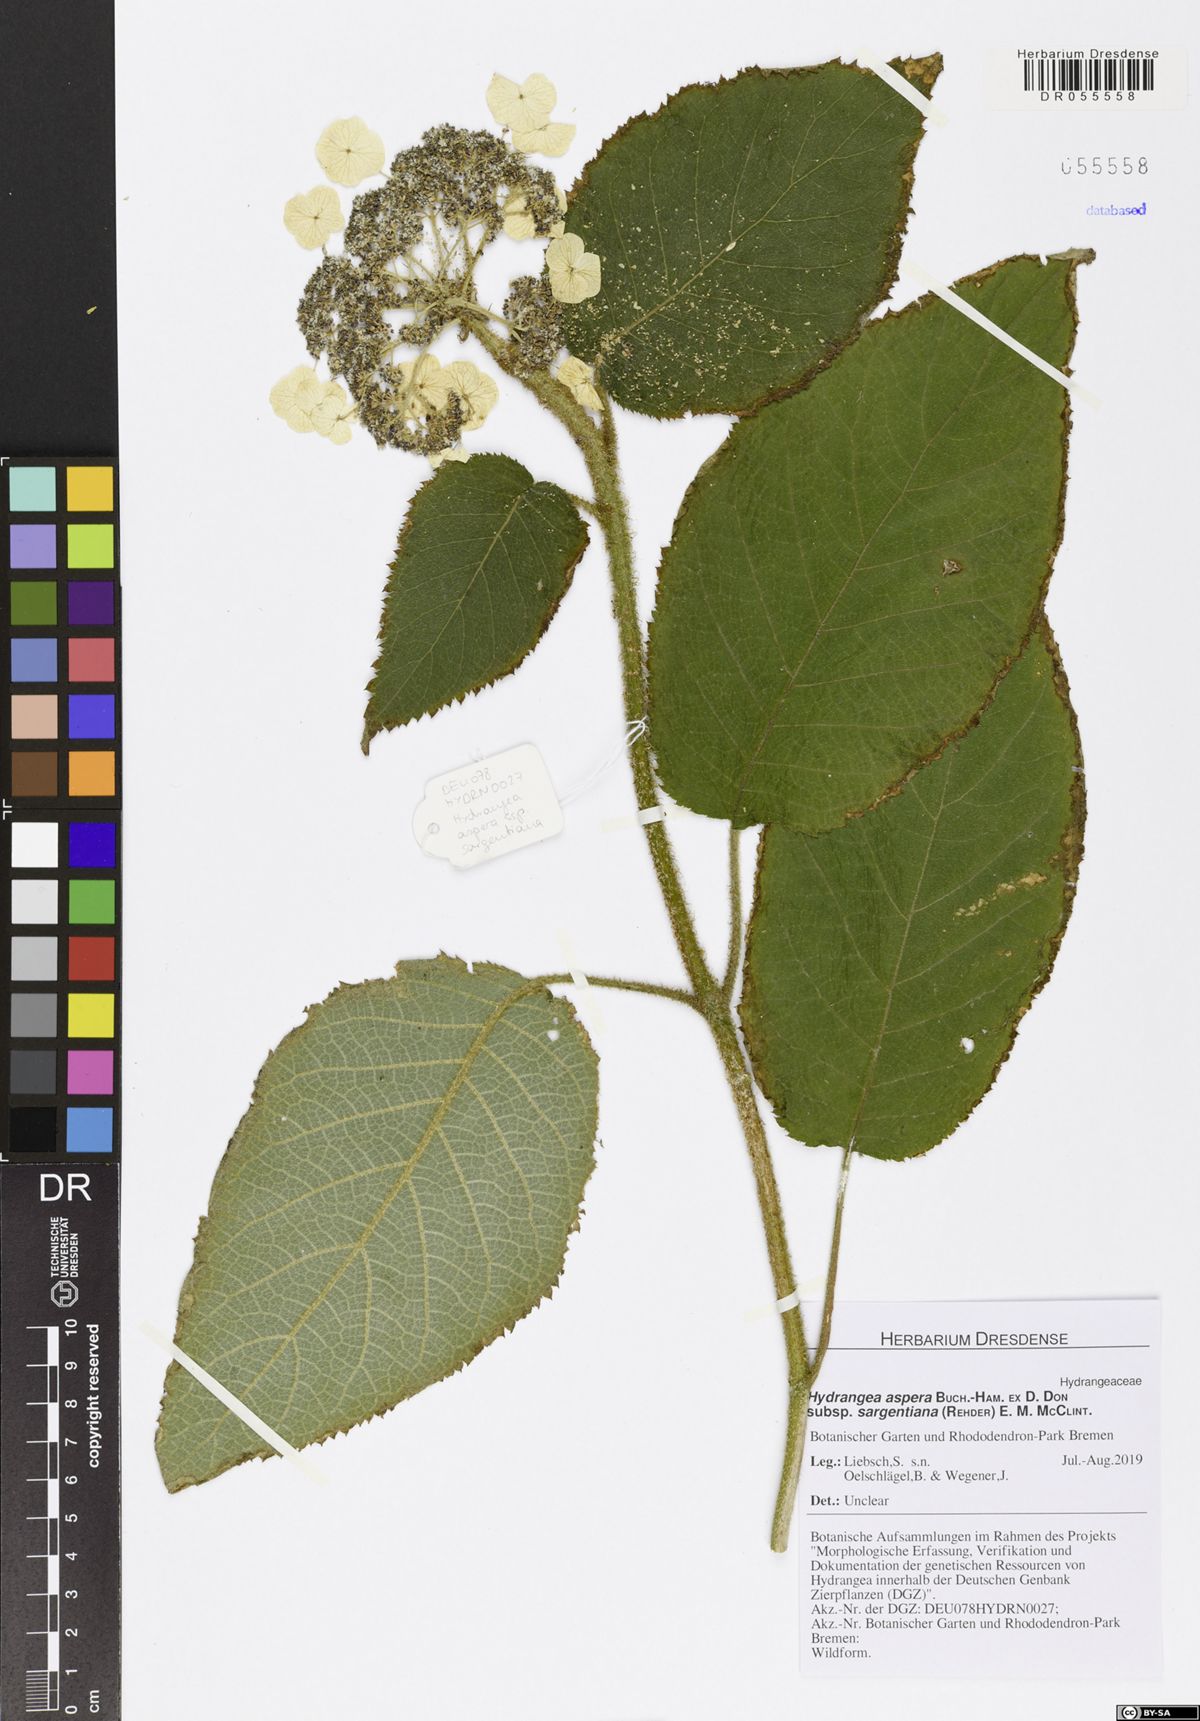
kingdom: Plantae
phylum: Tracheophyta
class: Magnoliopsida
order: Cornales
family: Hydrangeaceae
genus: Hydrangea
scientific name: Hydrangea sargentiana
